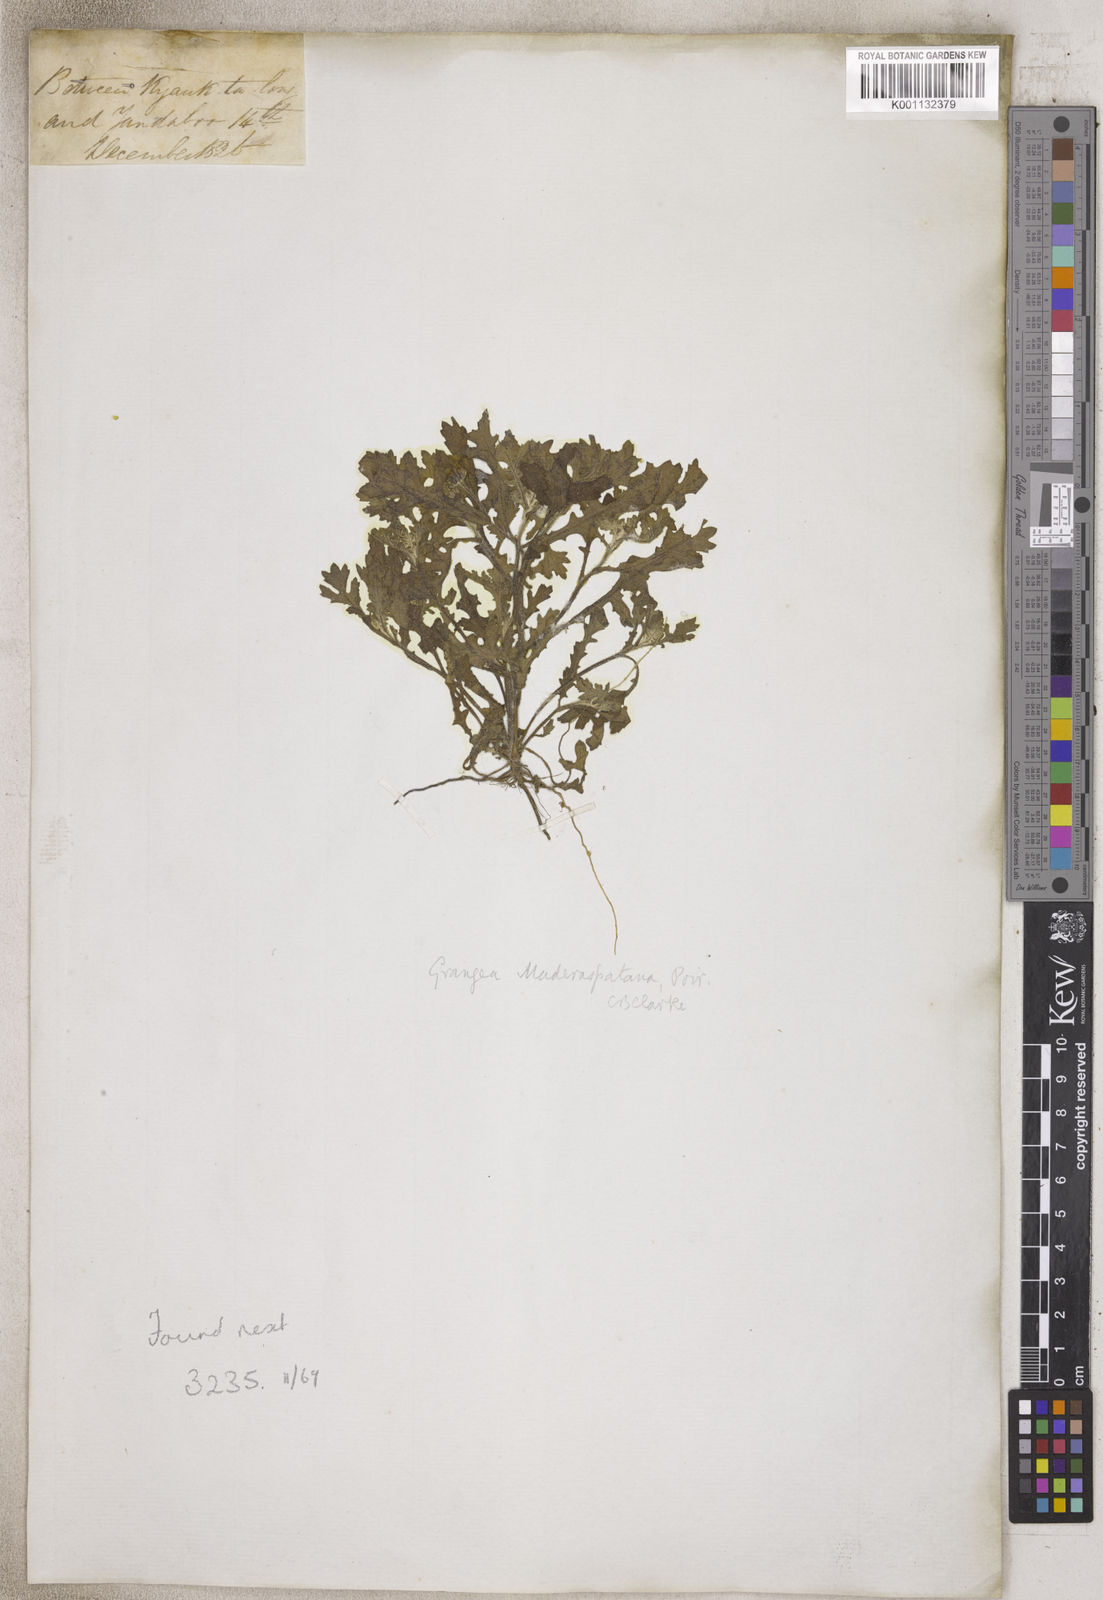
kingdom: Plantae
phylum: Tracheophyta
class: Magnoliopsida
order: Asterales
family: Asteraceae
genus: Grangea
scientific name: Grangea
